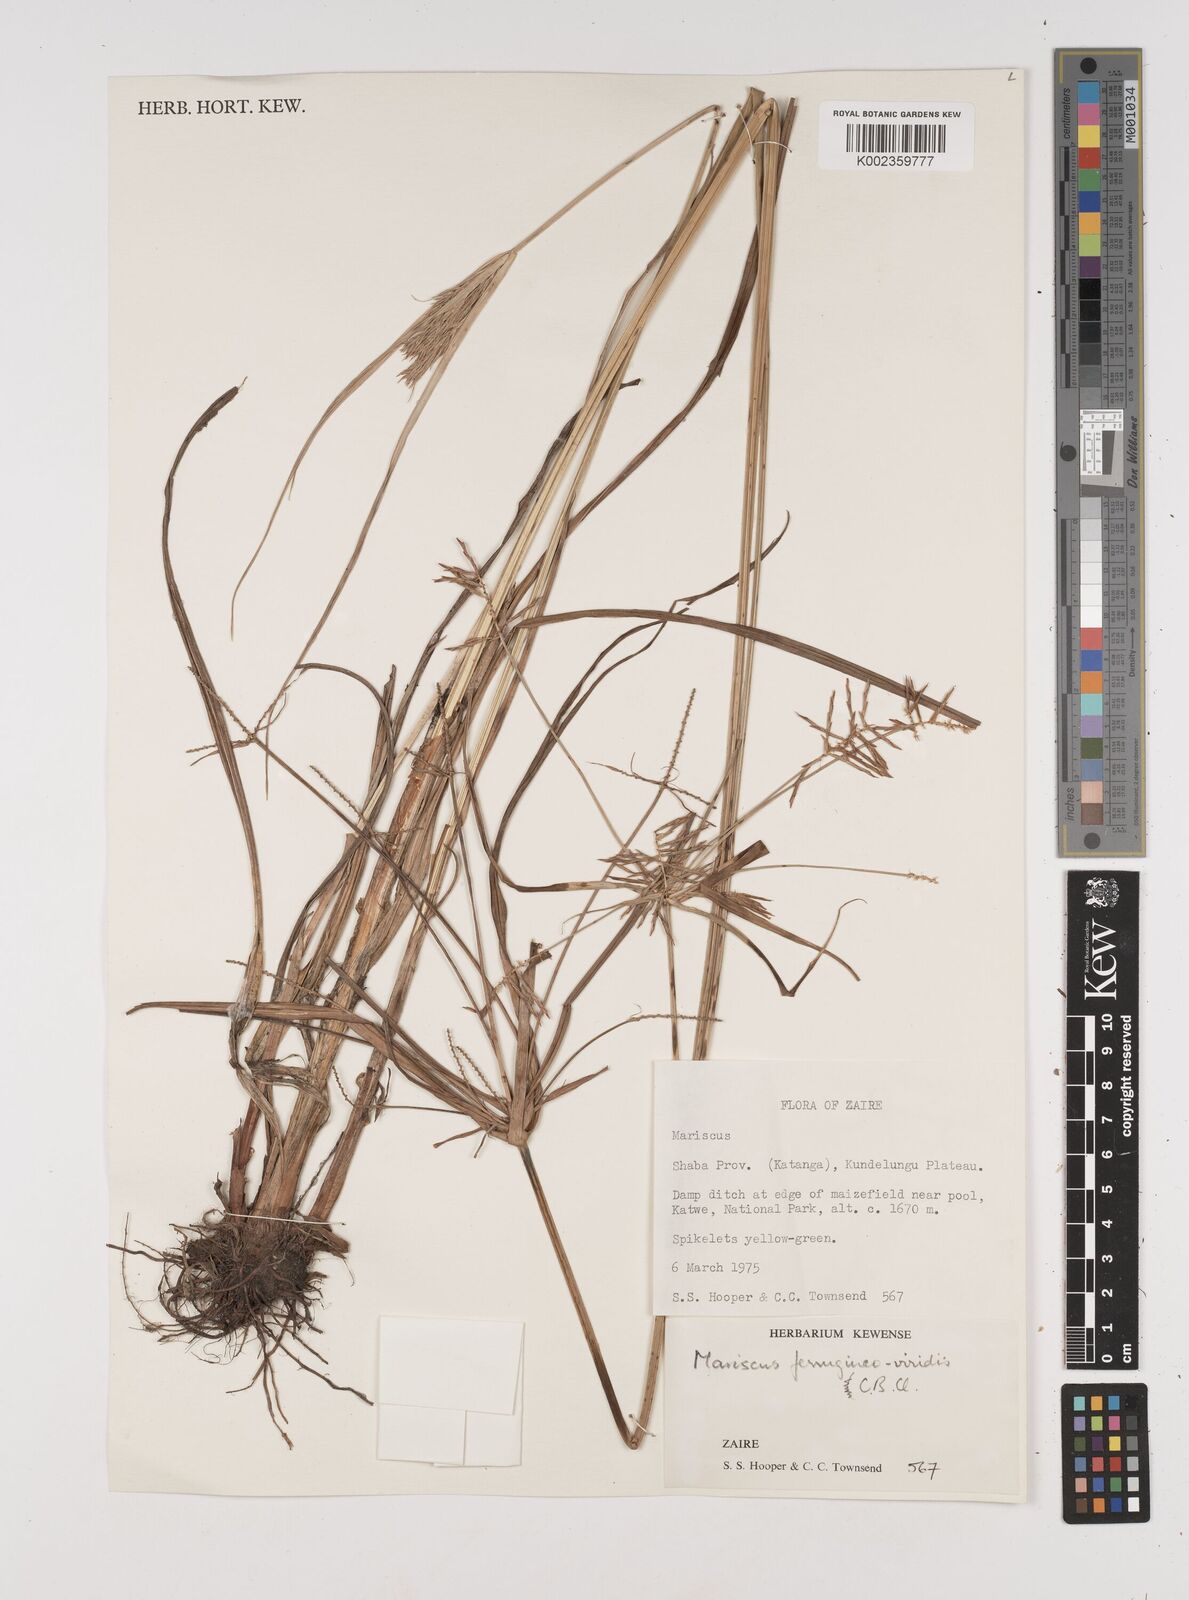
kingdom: Plantae
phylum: Tracheophyta
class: Liliopsida
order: Poales
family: Cyperaceae
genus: Cyperus
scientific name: Cyperus ferrugineoviridis
